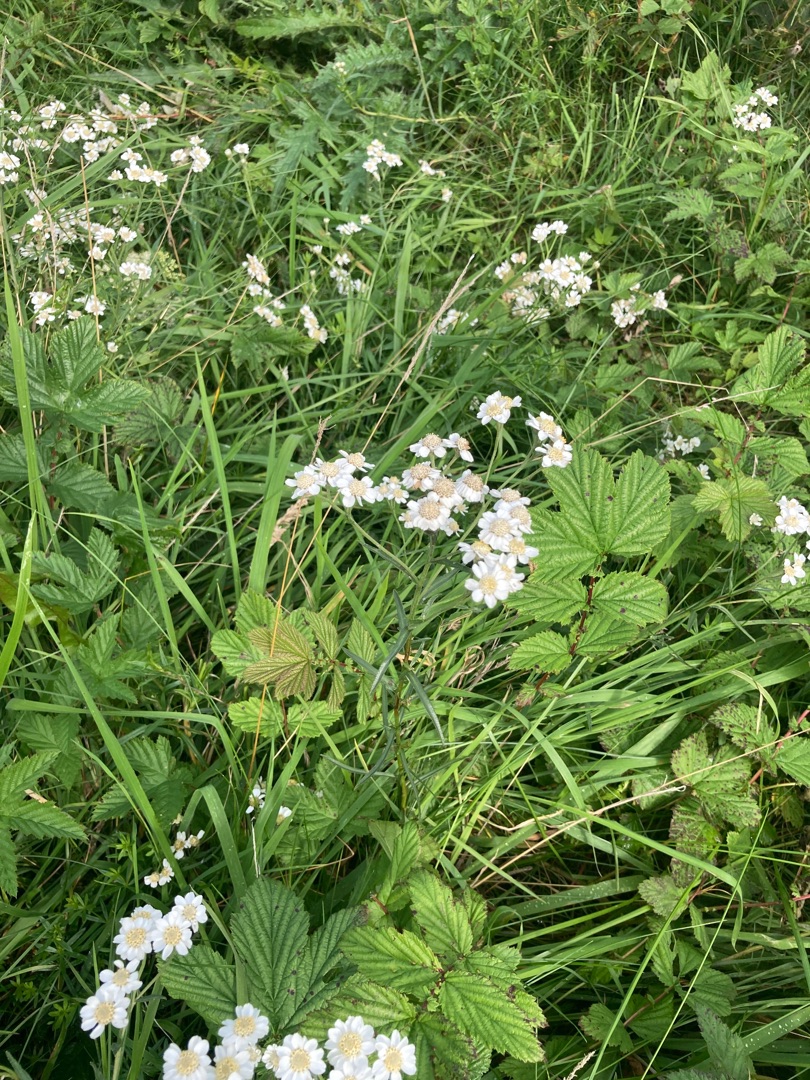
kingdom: Plantae
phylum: Tracheophyta
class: Magnoliopsida
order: Asterales
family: Asteraceae
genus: Achillea
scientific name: Achillea ptarmica
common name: Nyse-røllike
